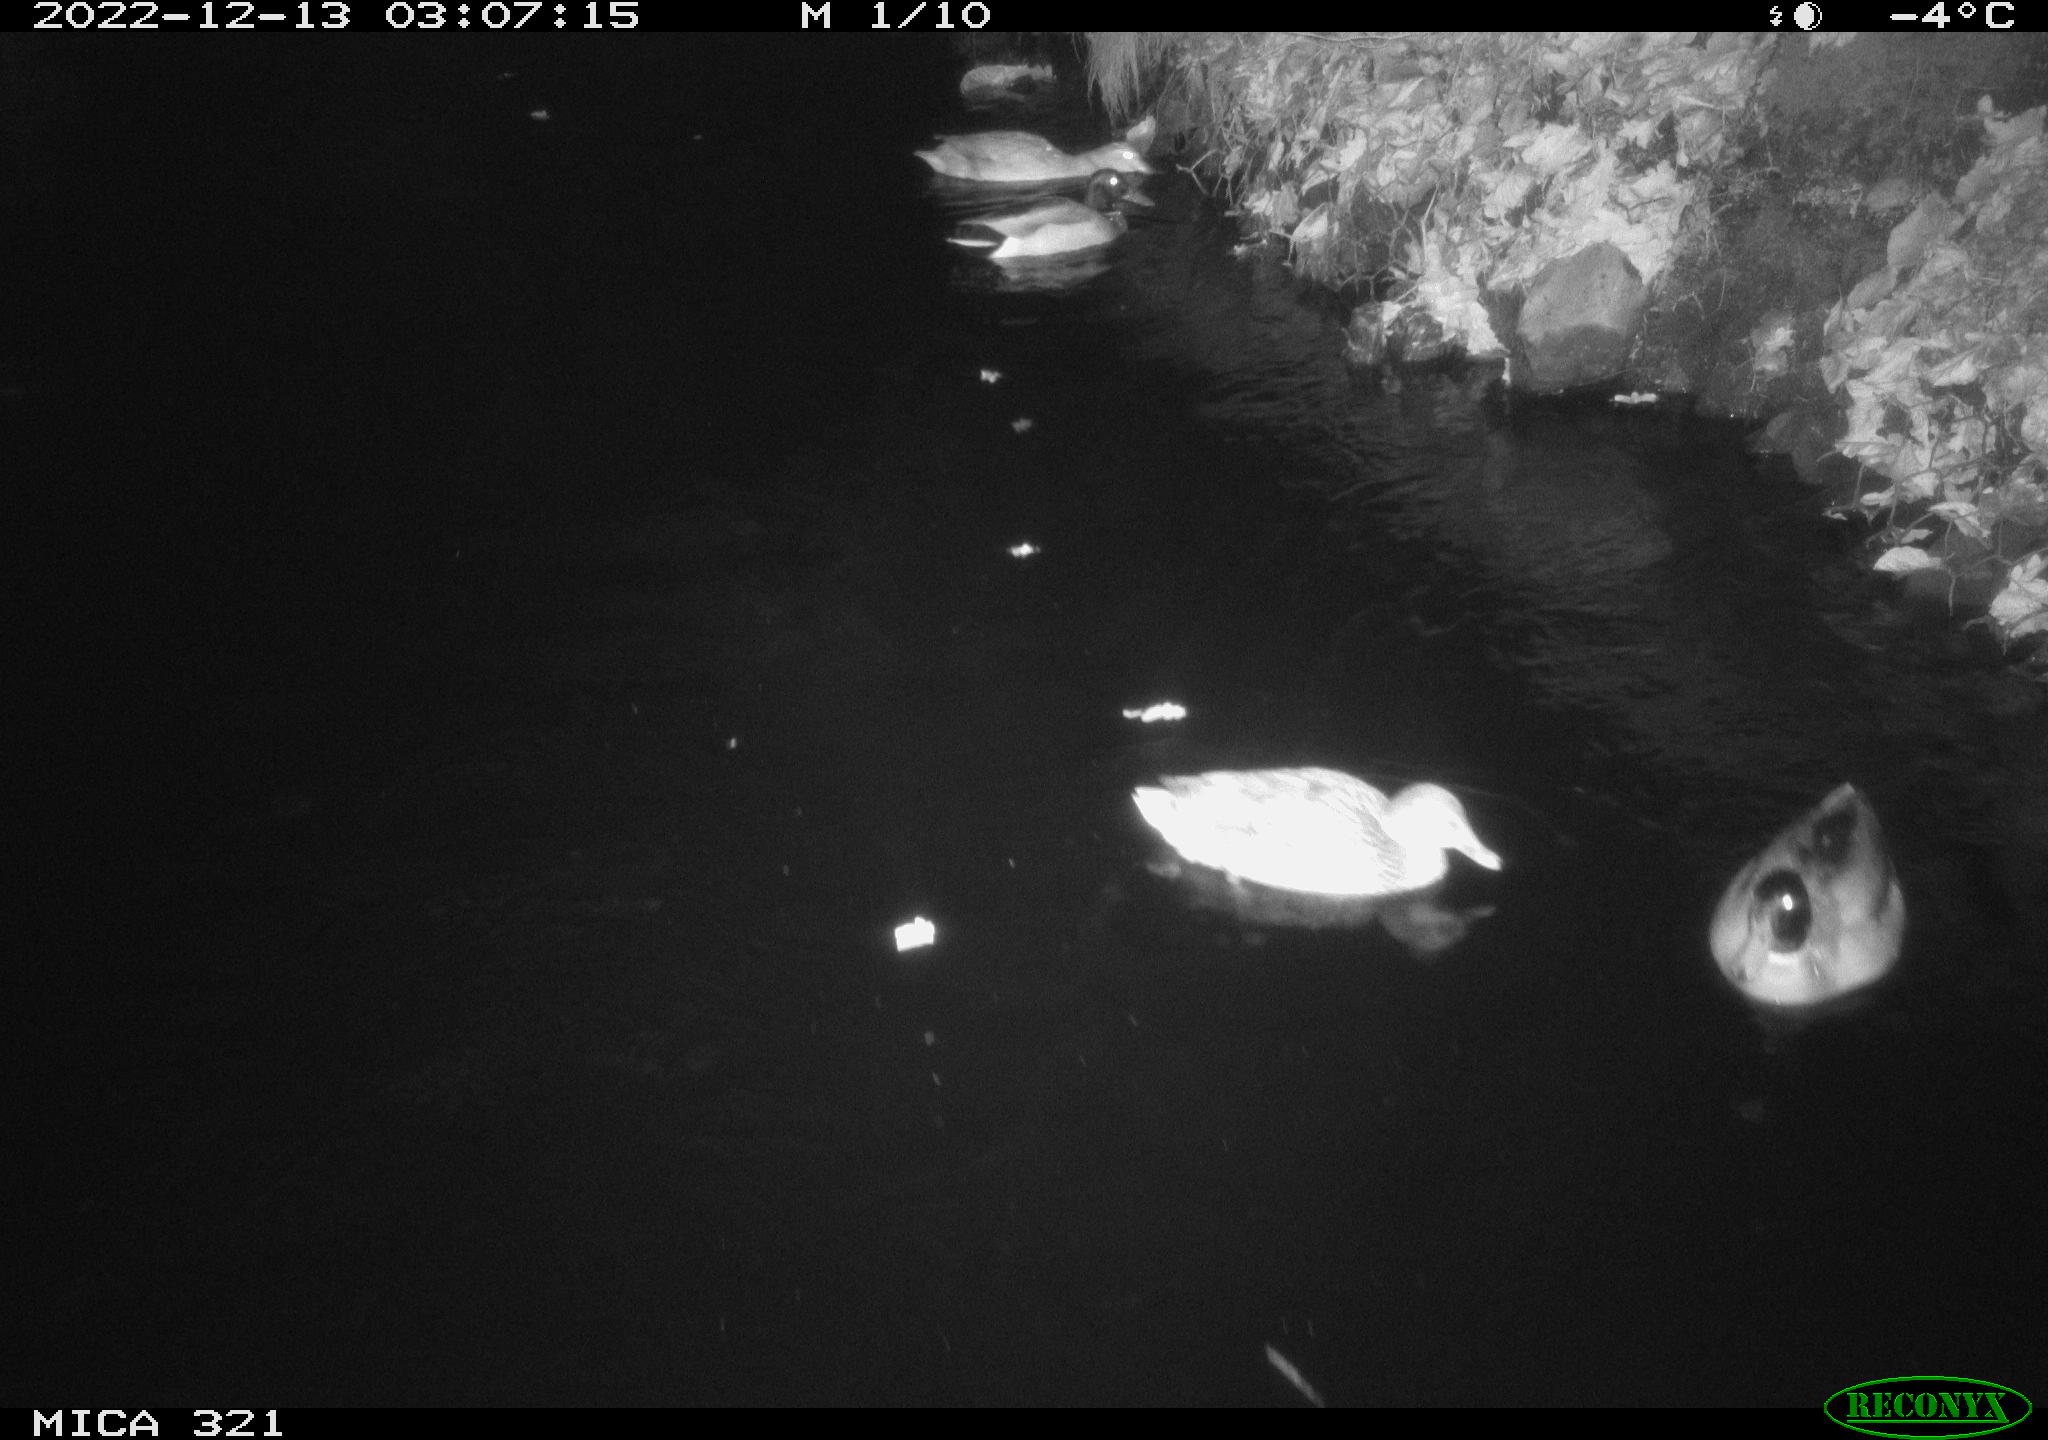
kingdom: Animalia
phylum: Chordata
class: Aves
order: Anseriformes
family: Anatidae
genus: Anas
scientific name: Anas
